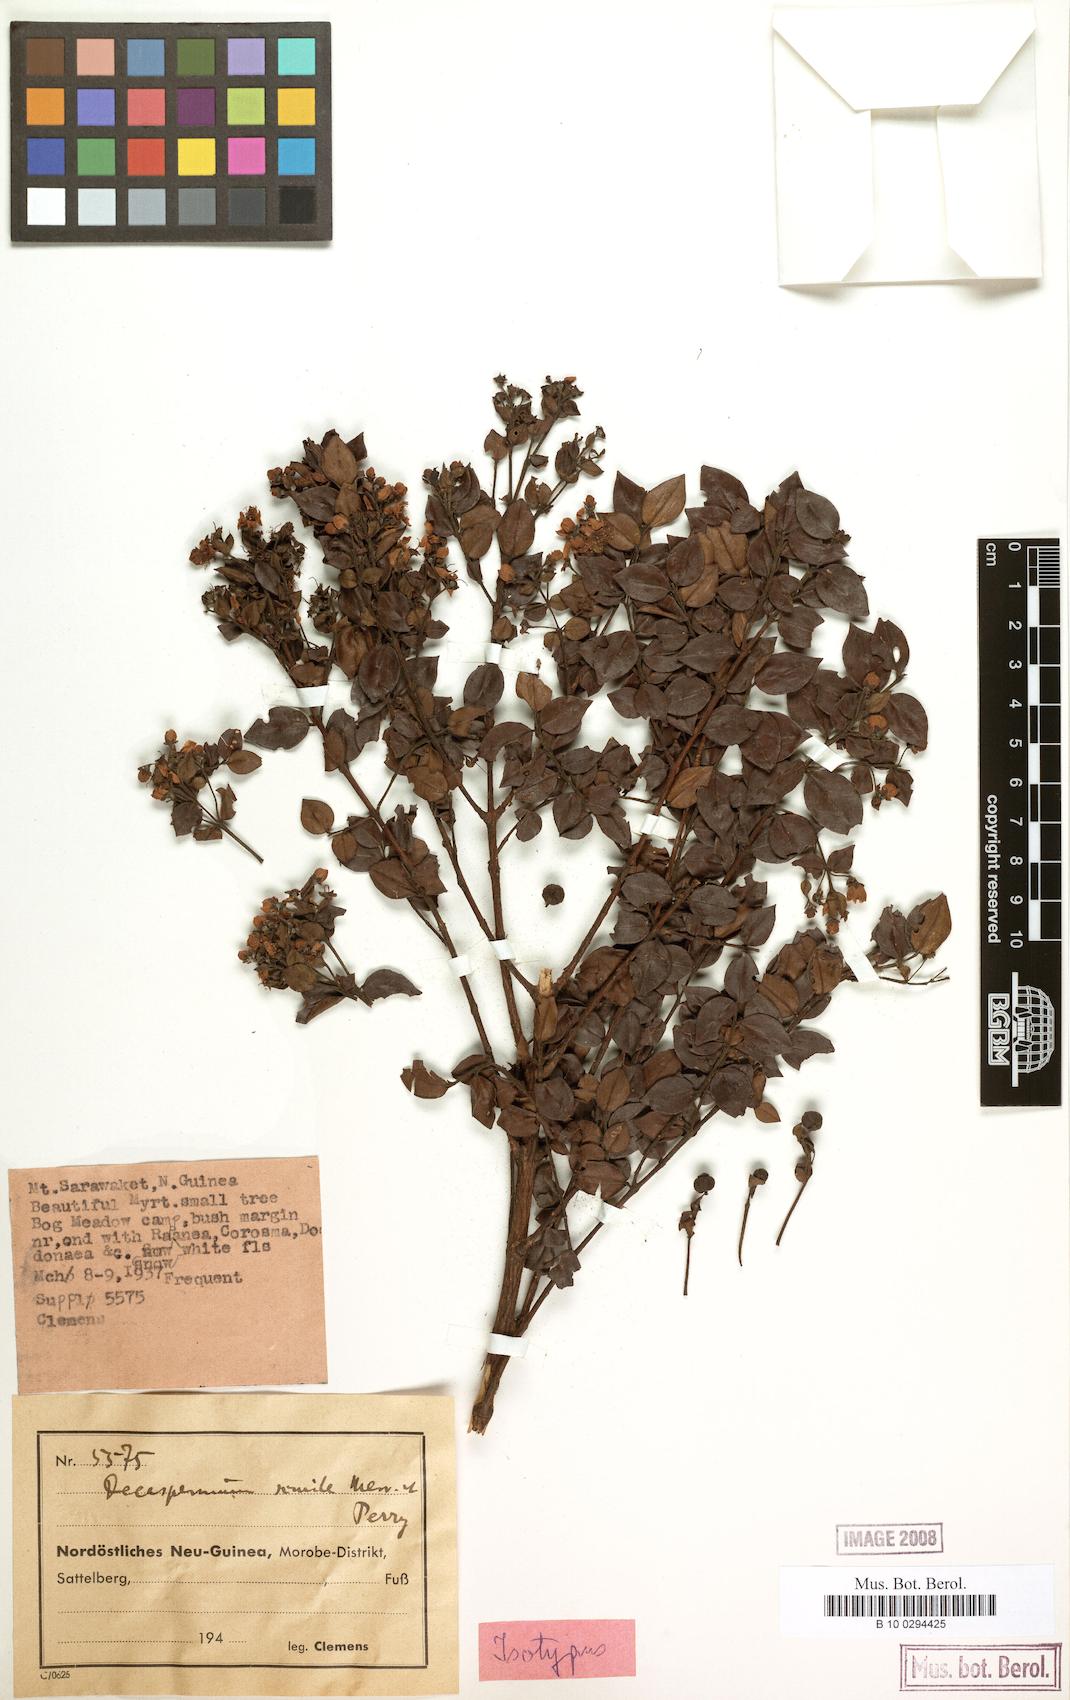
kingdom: Plantae
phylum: Tracheophyta
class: Magnoliopsida
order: Myrtales
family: Myrtaceae
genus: Decaspermum
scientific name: Decaspermum forbesii
